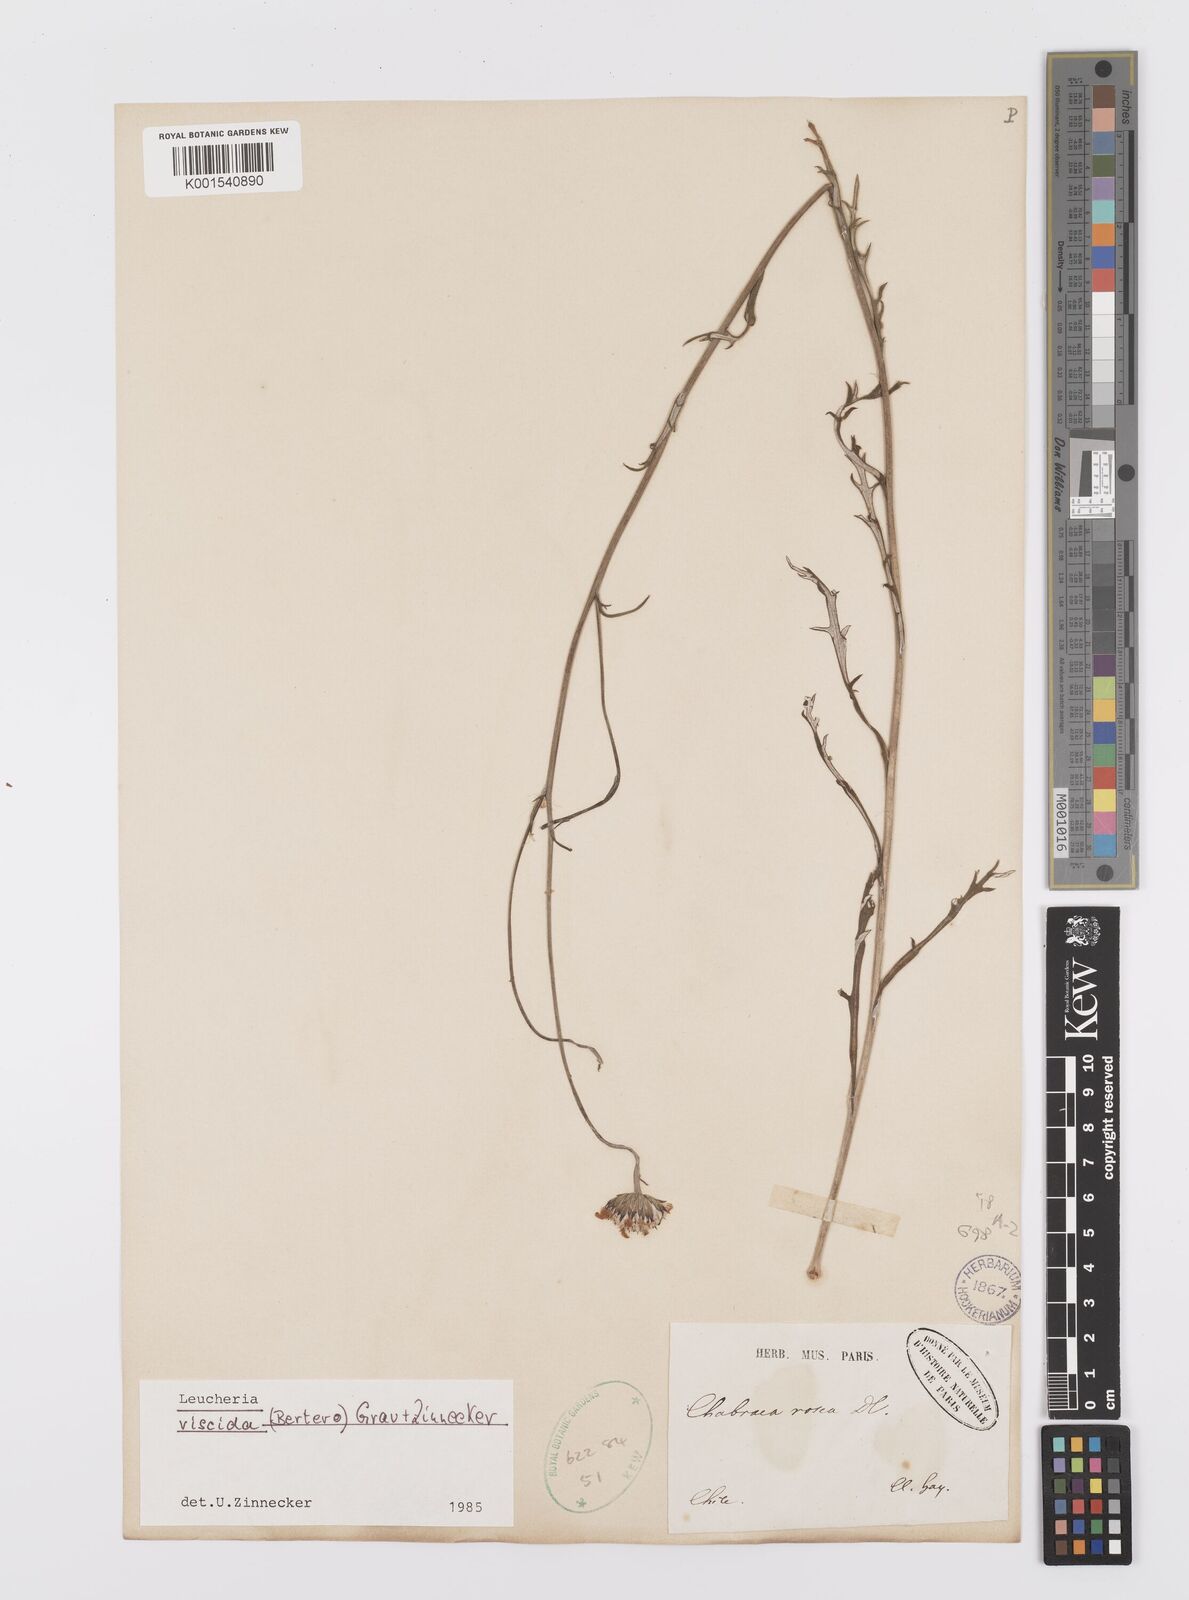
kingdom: Plantae
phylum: Tracheophyta
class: Magnoliopsida
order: Asterales
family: Asteraceae
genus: Leucheria
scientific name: Leucheria viscida
